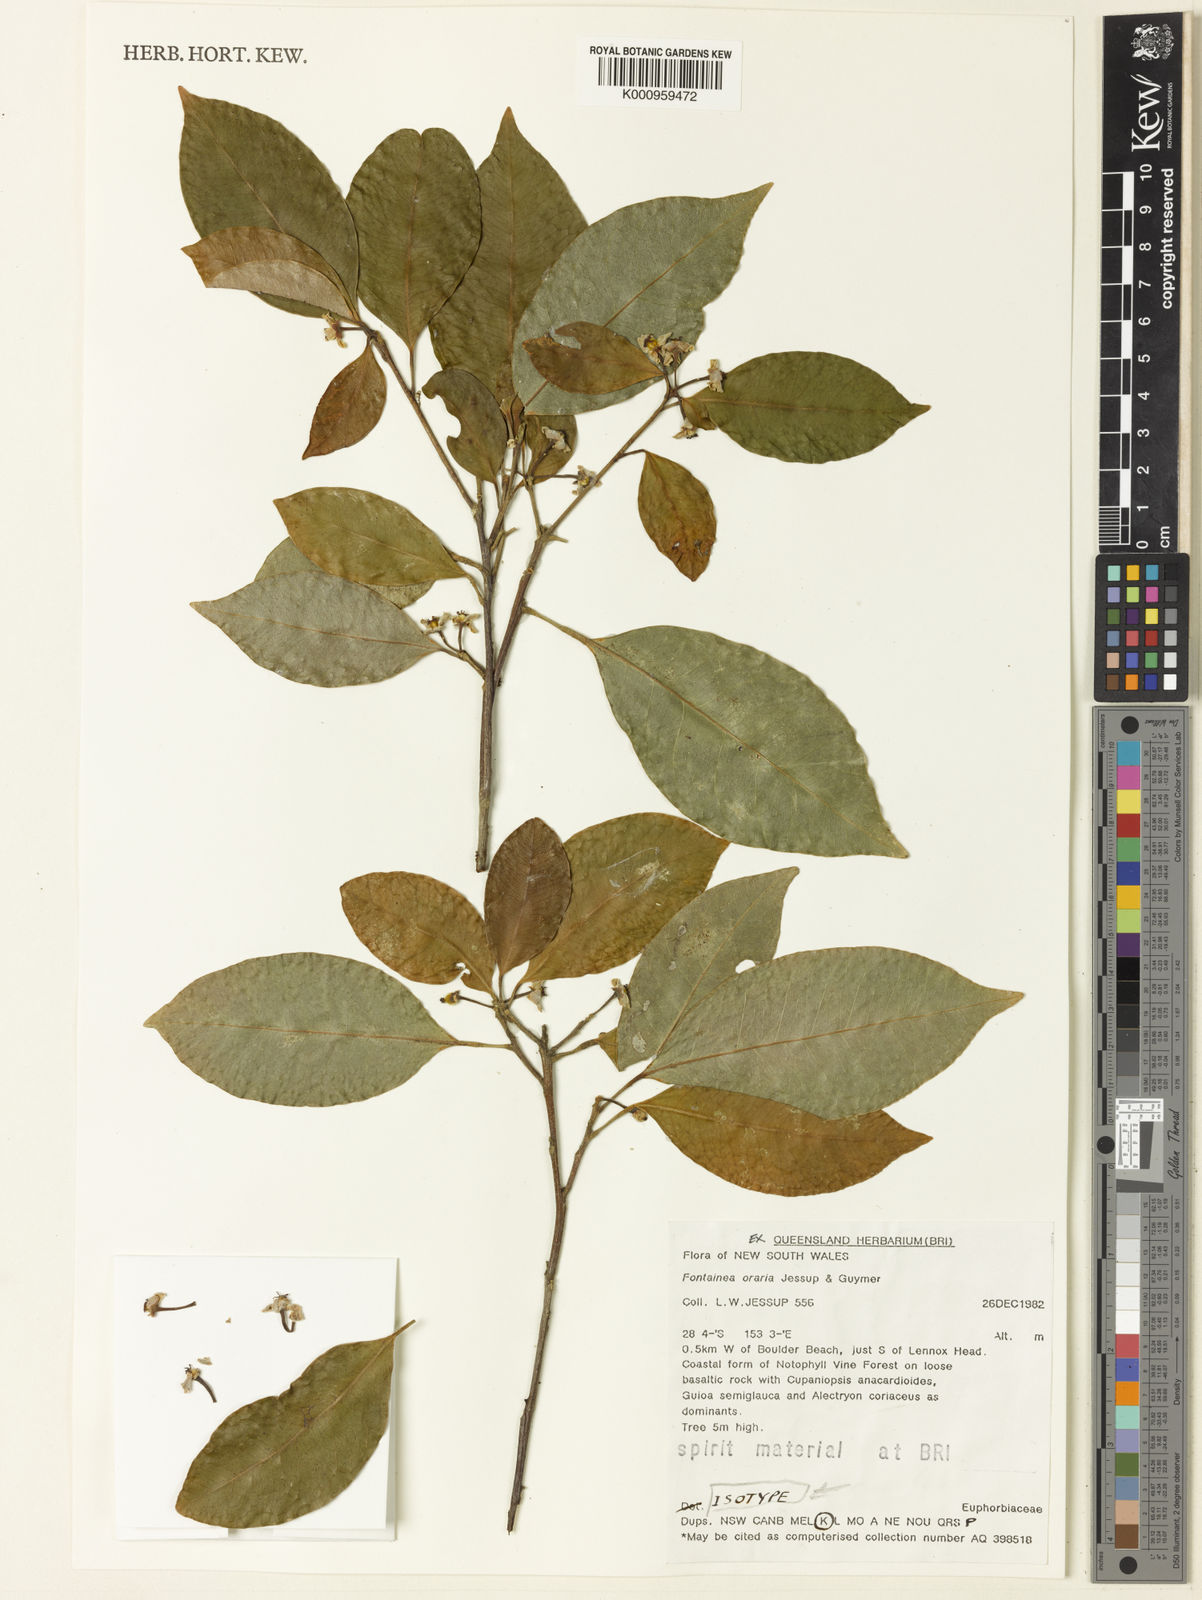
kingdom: Plantae
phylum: Tracheophyta
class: Magnoliopsida
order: Malpighiales
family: Euphorbiaceae
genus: Fontainea
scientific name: Fontainea oraria
